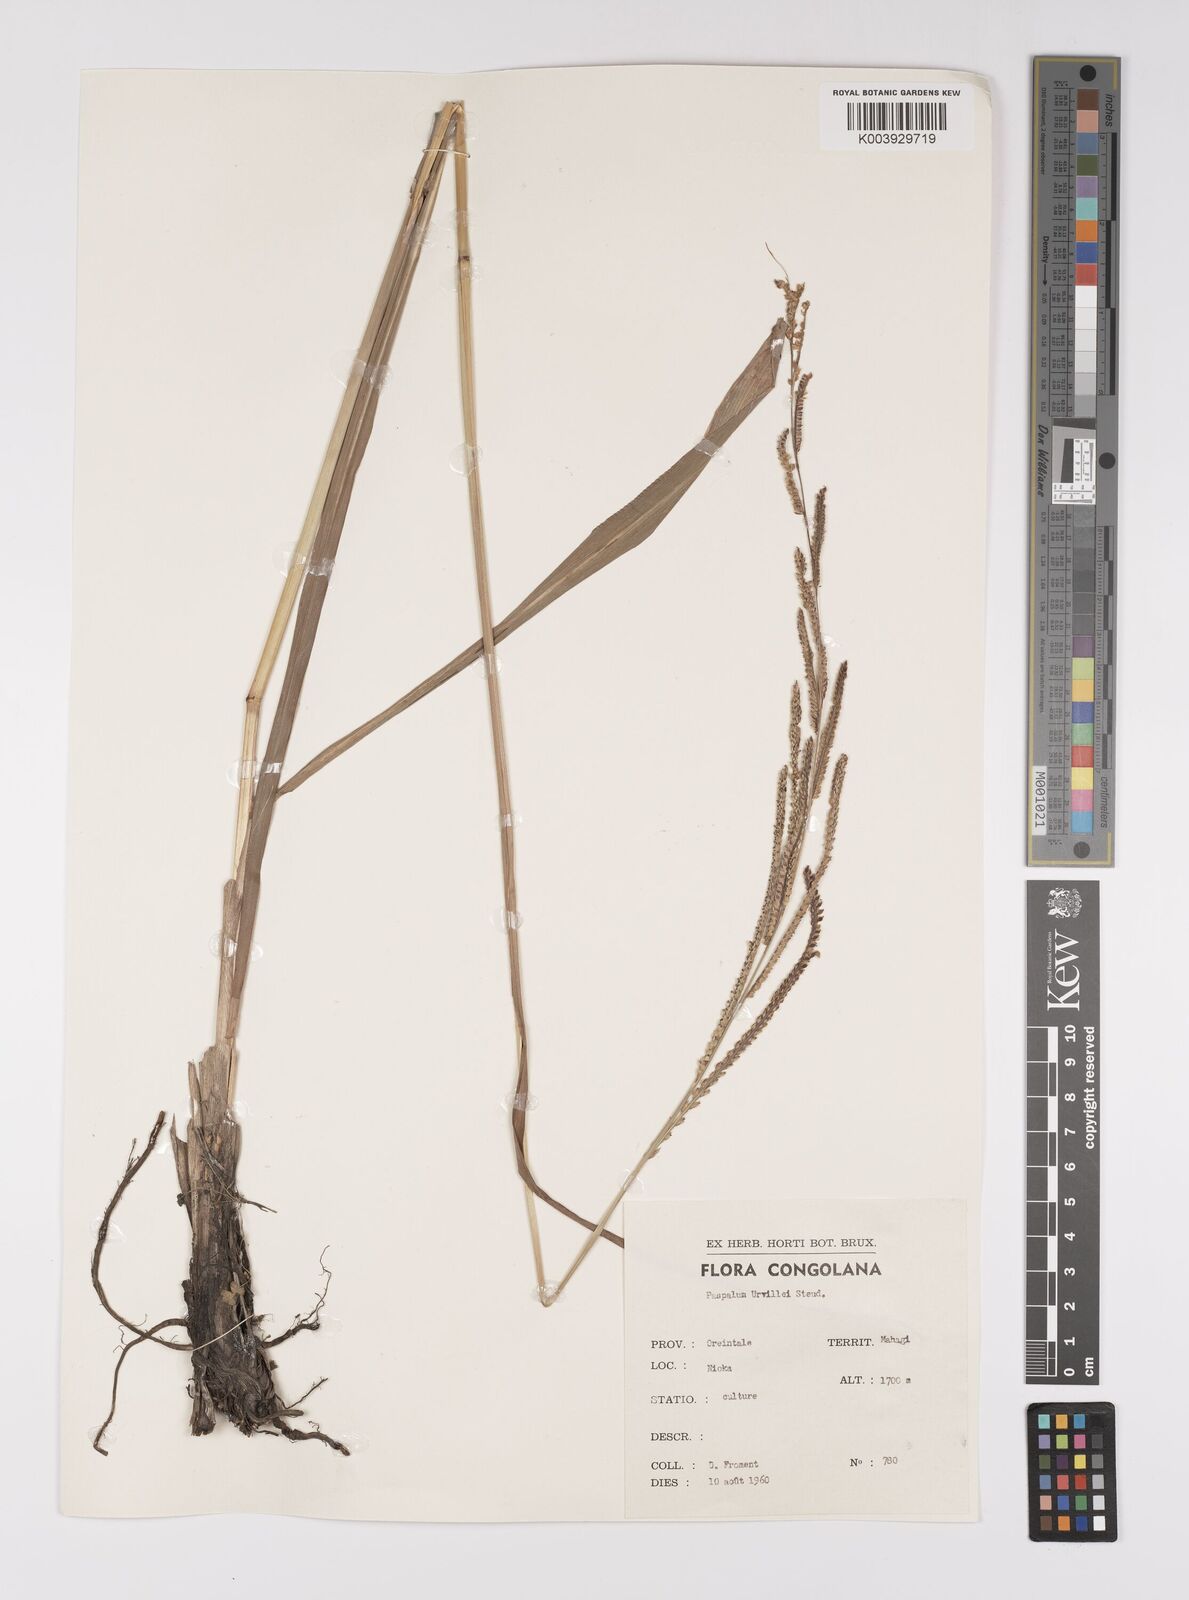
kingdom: Plantae
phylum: Tracheophyta
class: Liliopsida
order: Poales
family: Poaceae
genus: Paspalum
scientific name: Paspalum urvillei
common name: Vasey's grass
